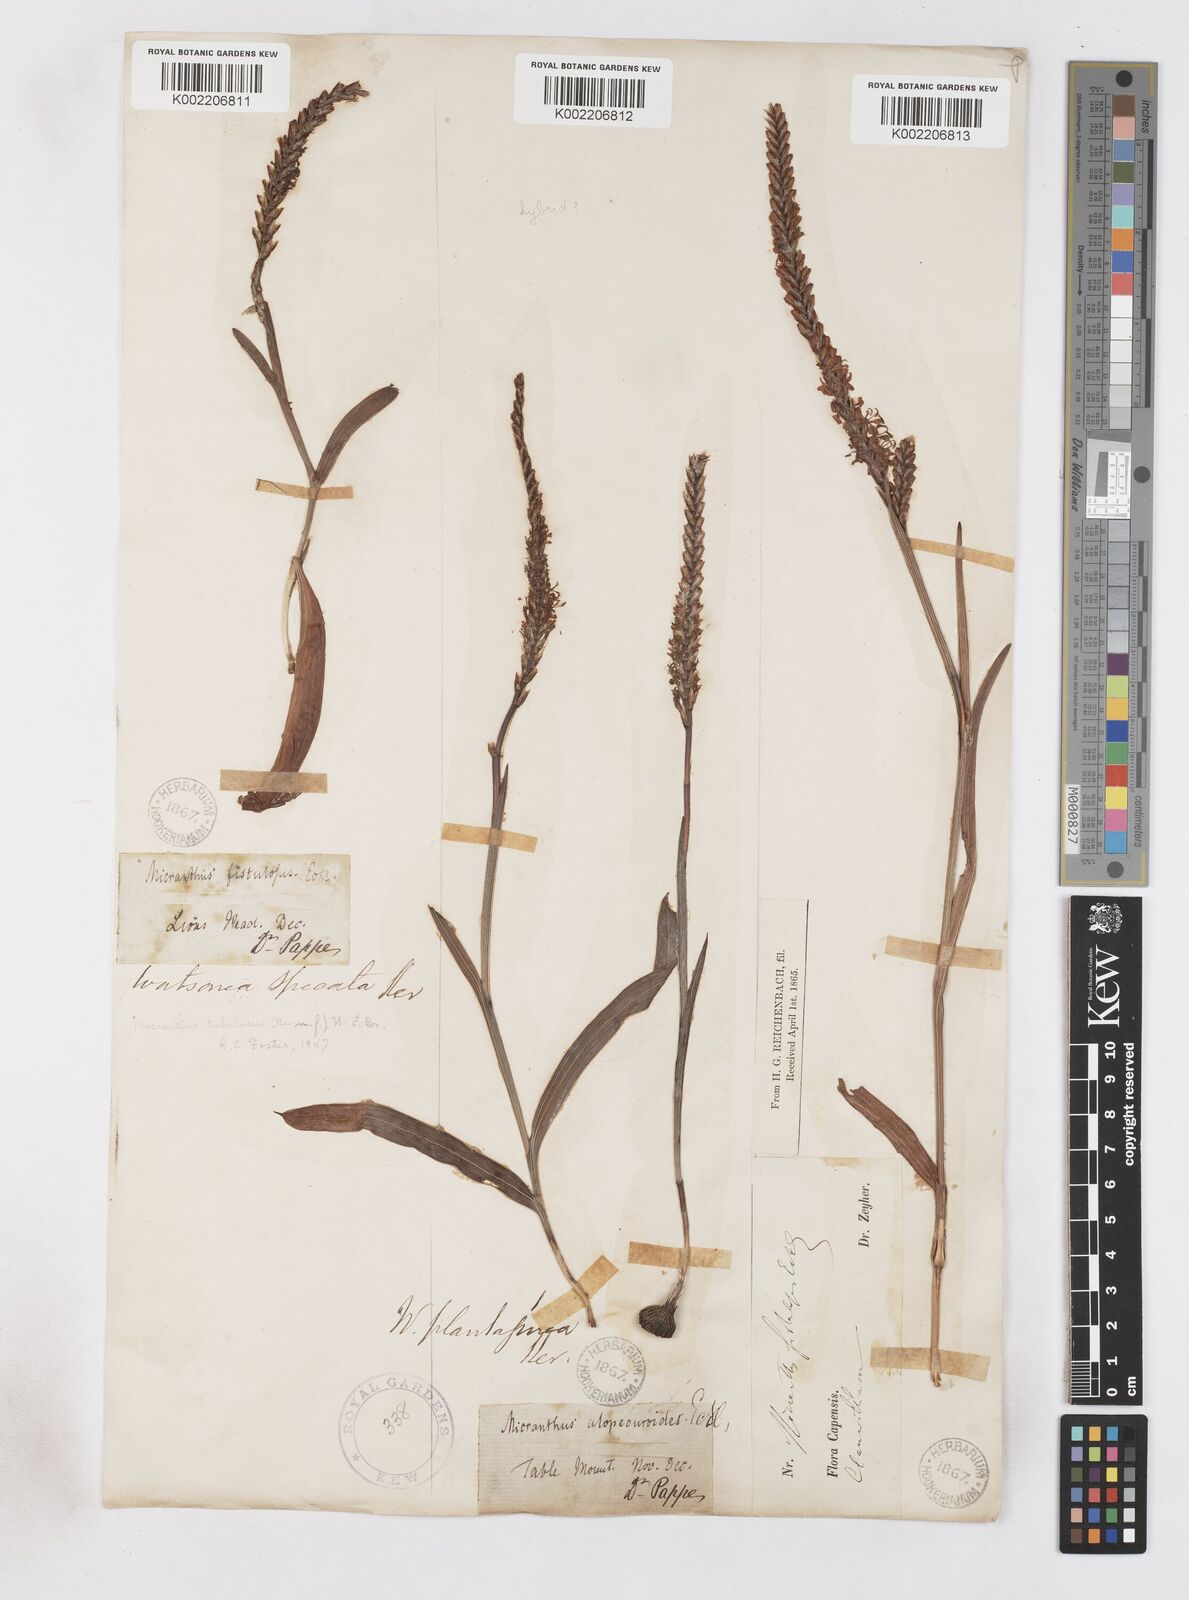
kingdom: Plantae
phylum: Tracheophyta
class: Liliopsida
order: Asparagales
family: Iridaceae
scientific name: Iridaceae
